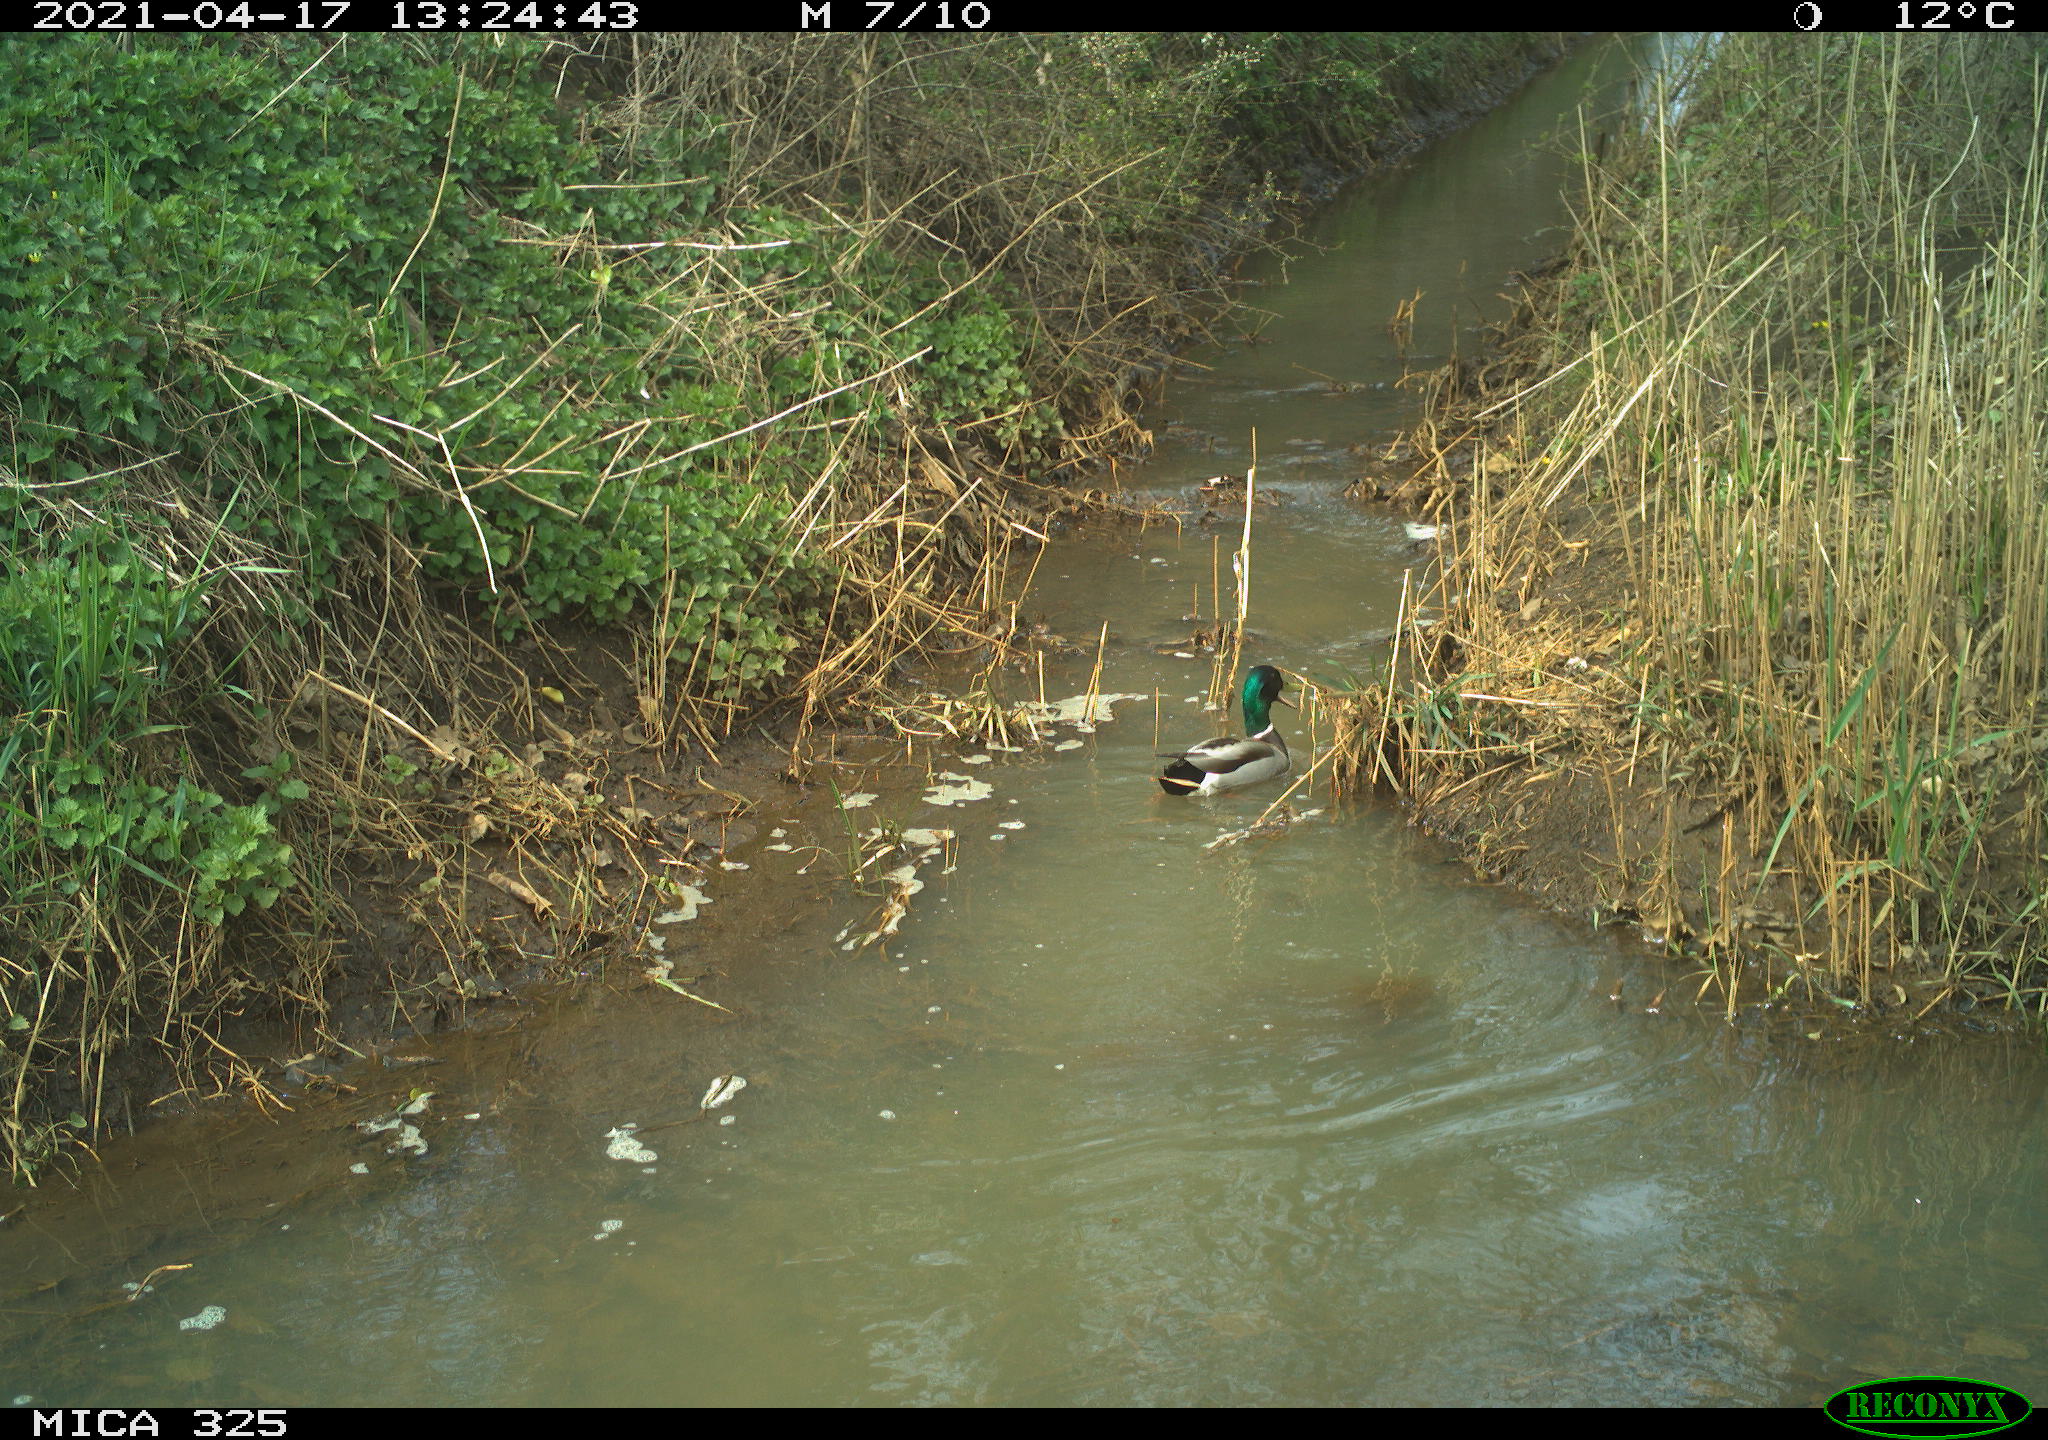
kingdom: Animalia
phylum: Chordata
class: Aves
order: Anseriformes
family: Anatidae
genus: Anas
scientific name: Anas platyrhynchos
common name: Mallard
